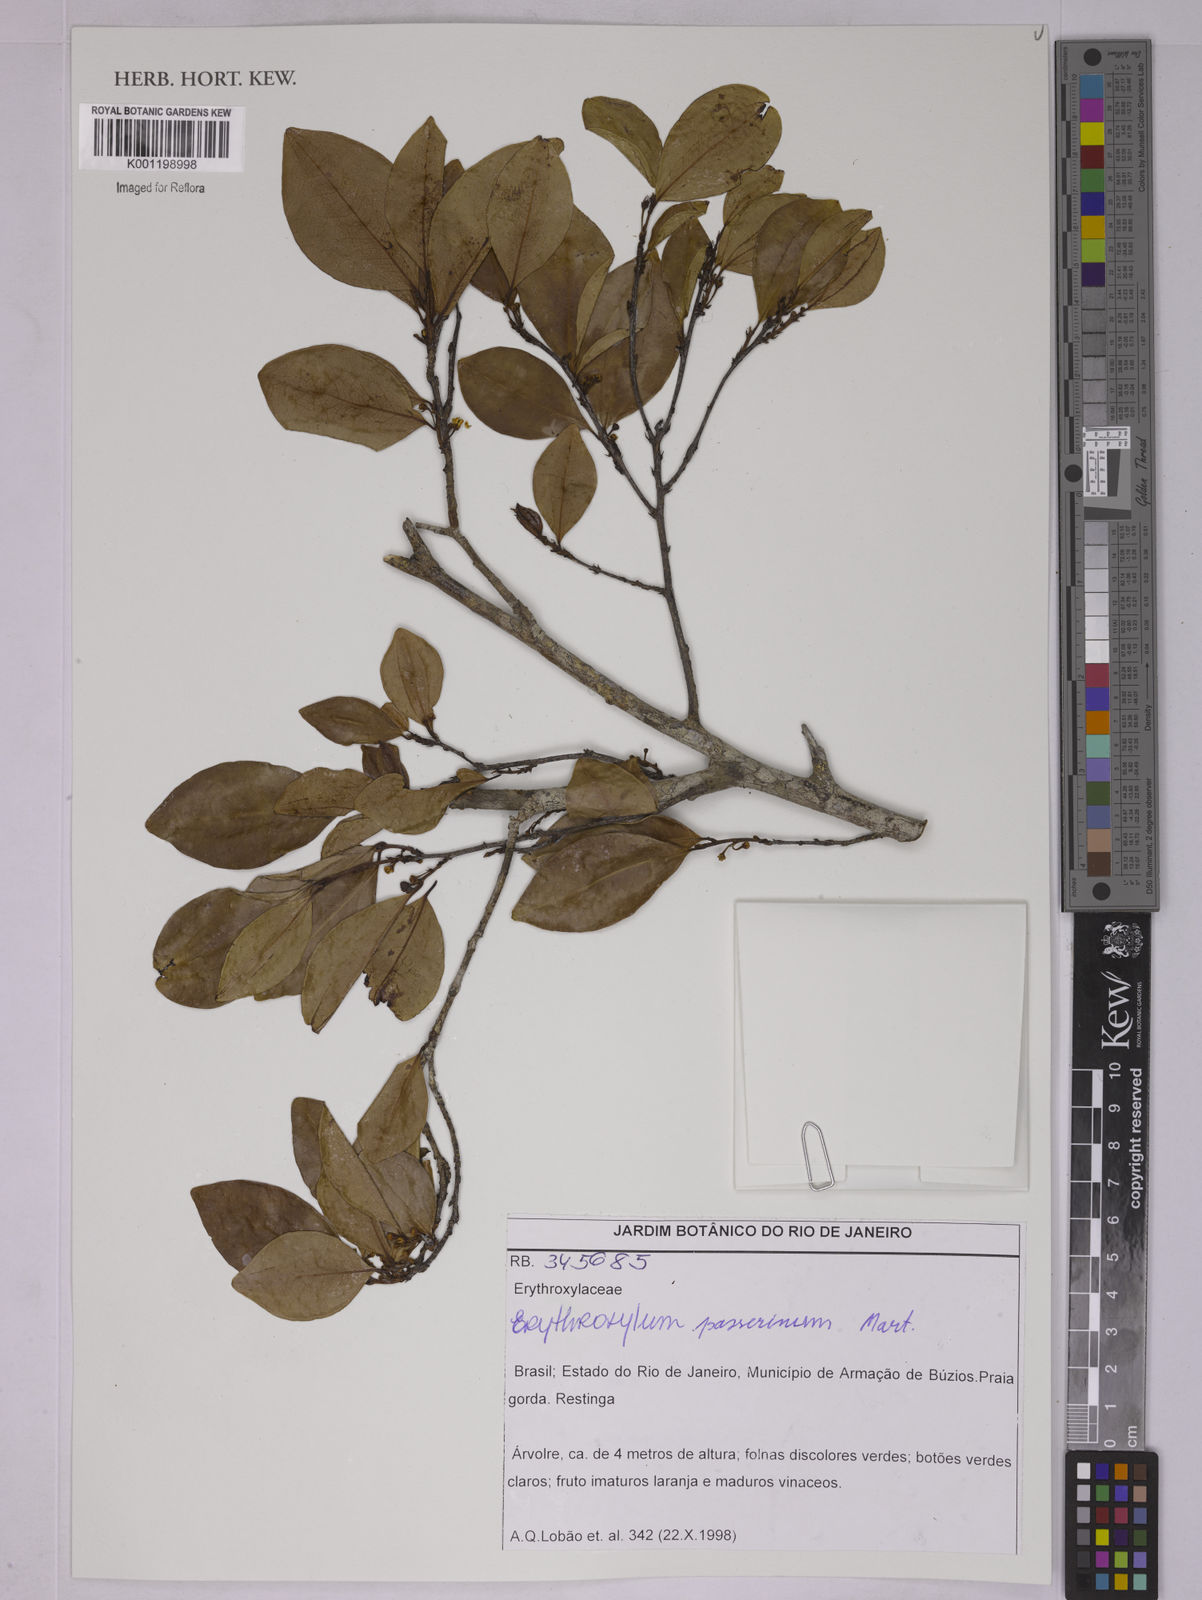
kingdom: Plantae
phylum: Tracheophyta
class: Magnoliopsida
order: Malpighiales
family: Erythroxylaceae
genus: Erythroxylum
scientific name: Erythroxylum passerinum
